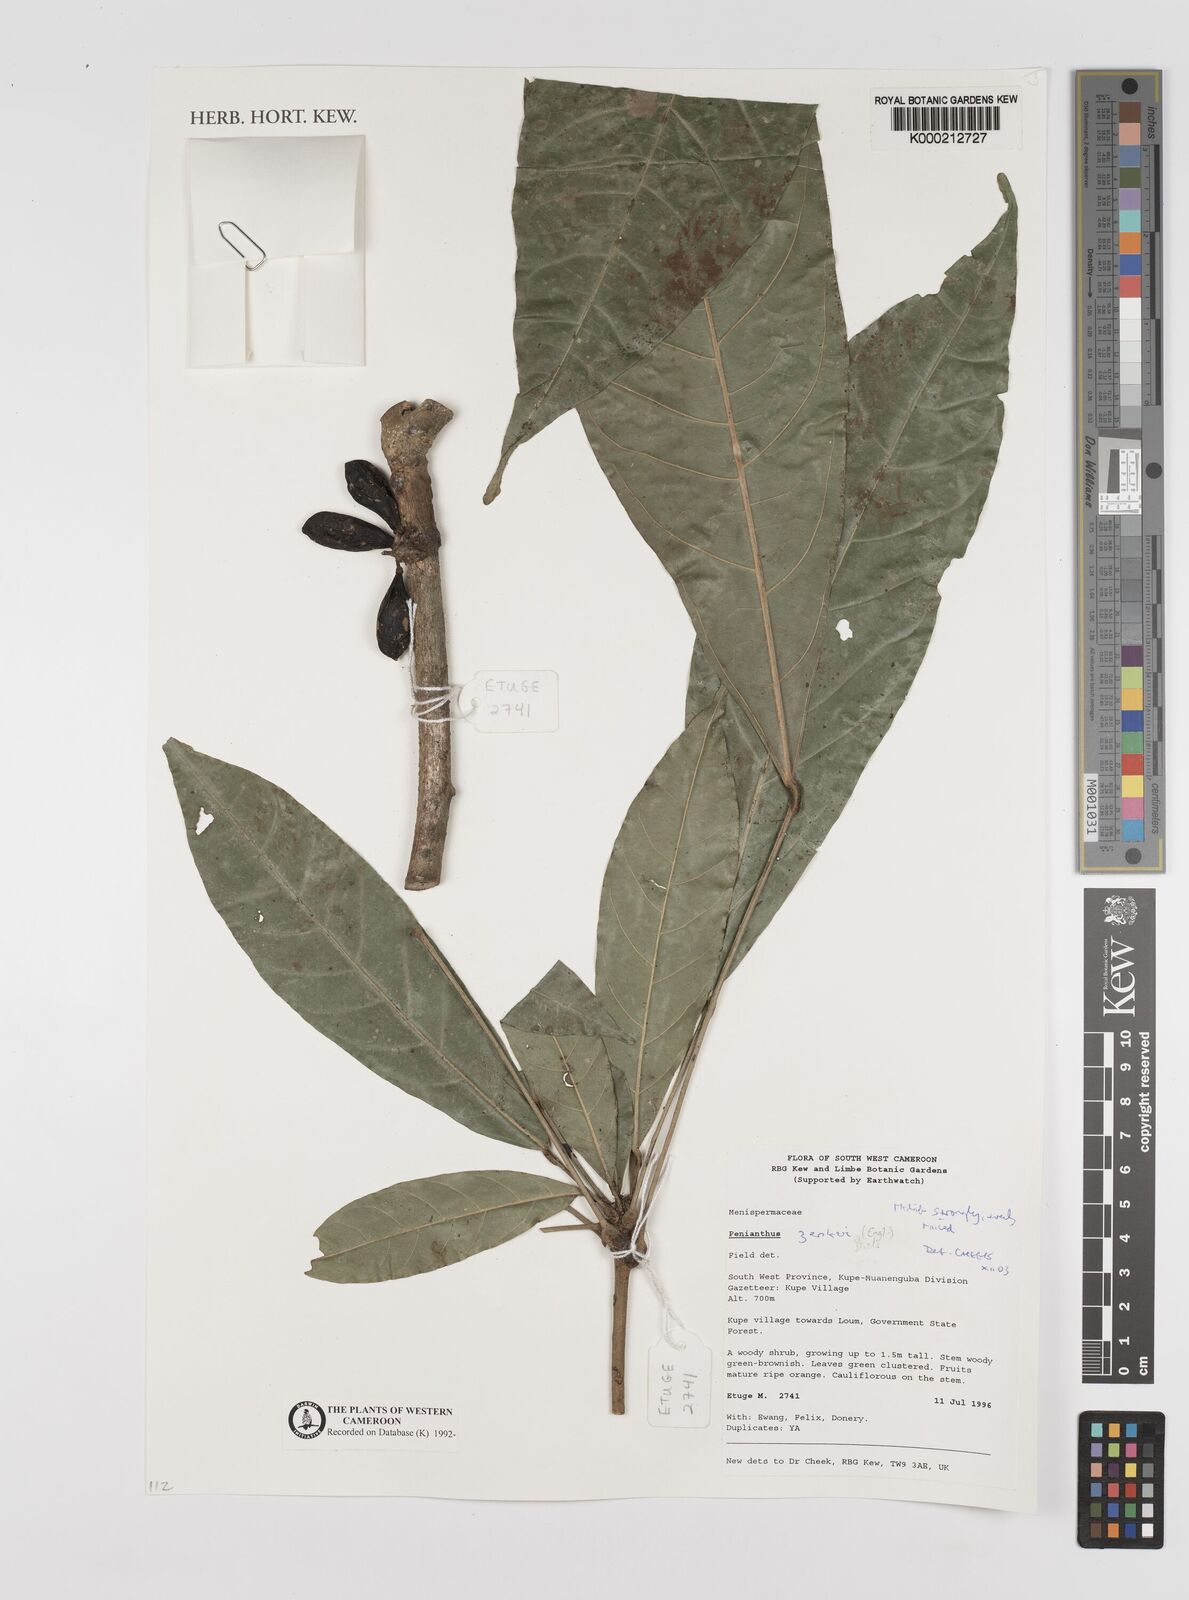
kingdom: Plantae
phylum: Tracheophyta
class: Magnoliopsida
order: Ranunculales
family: Menispermaceae
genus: Penianthus
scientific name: Penianthus zenkeri
